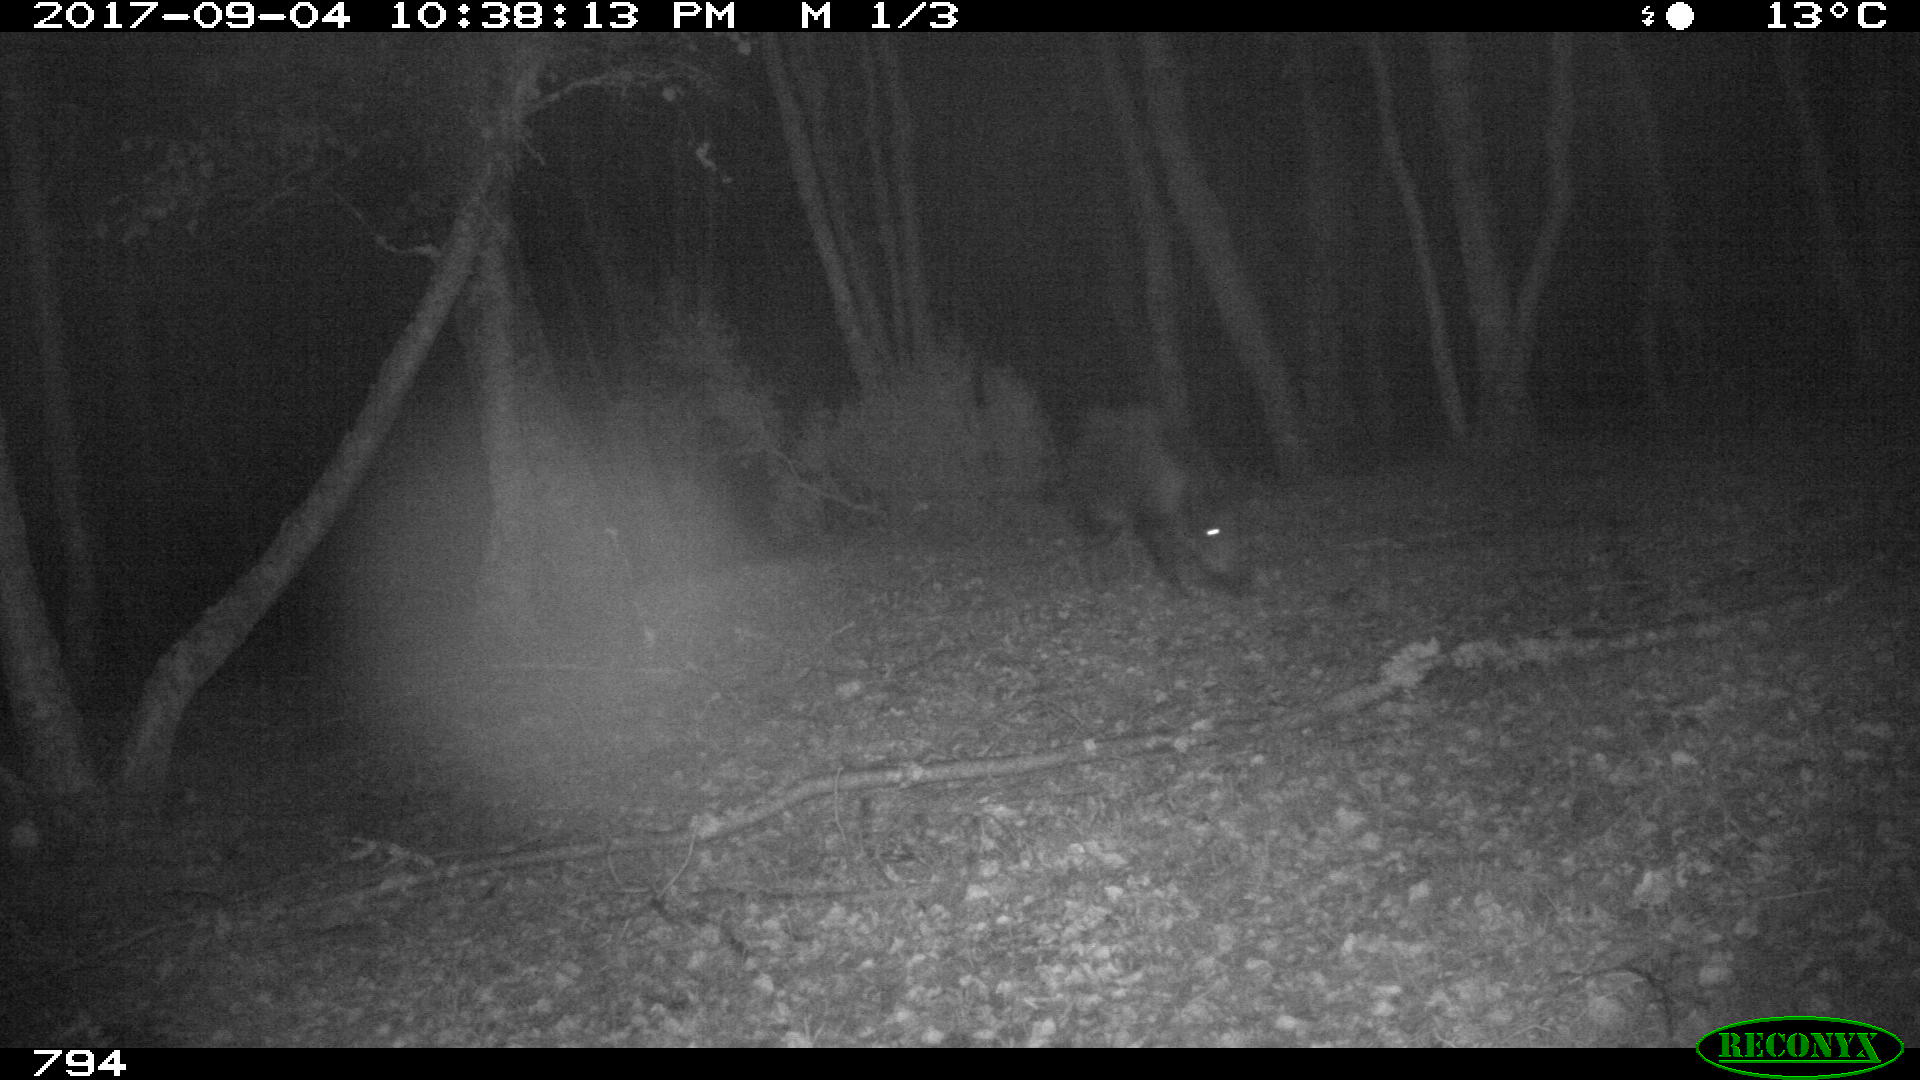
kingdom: Animalia
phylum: Chordata
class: Mammalia
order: Artiodactyla
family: Suidae
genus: Sus
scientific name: Sus scrofa
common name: Wild boar
